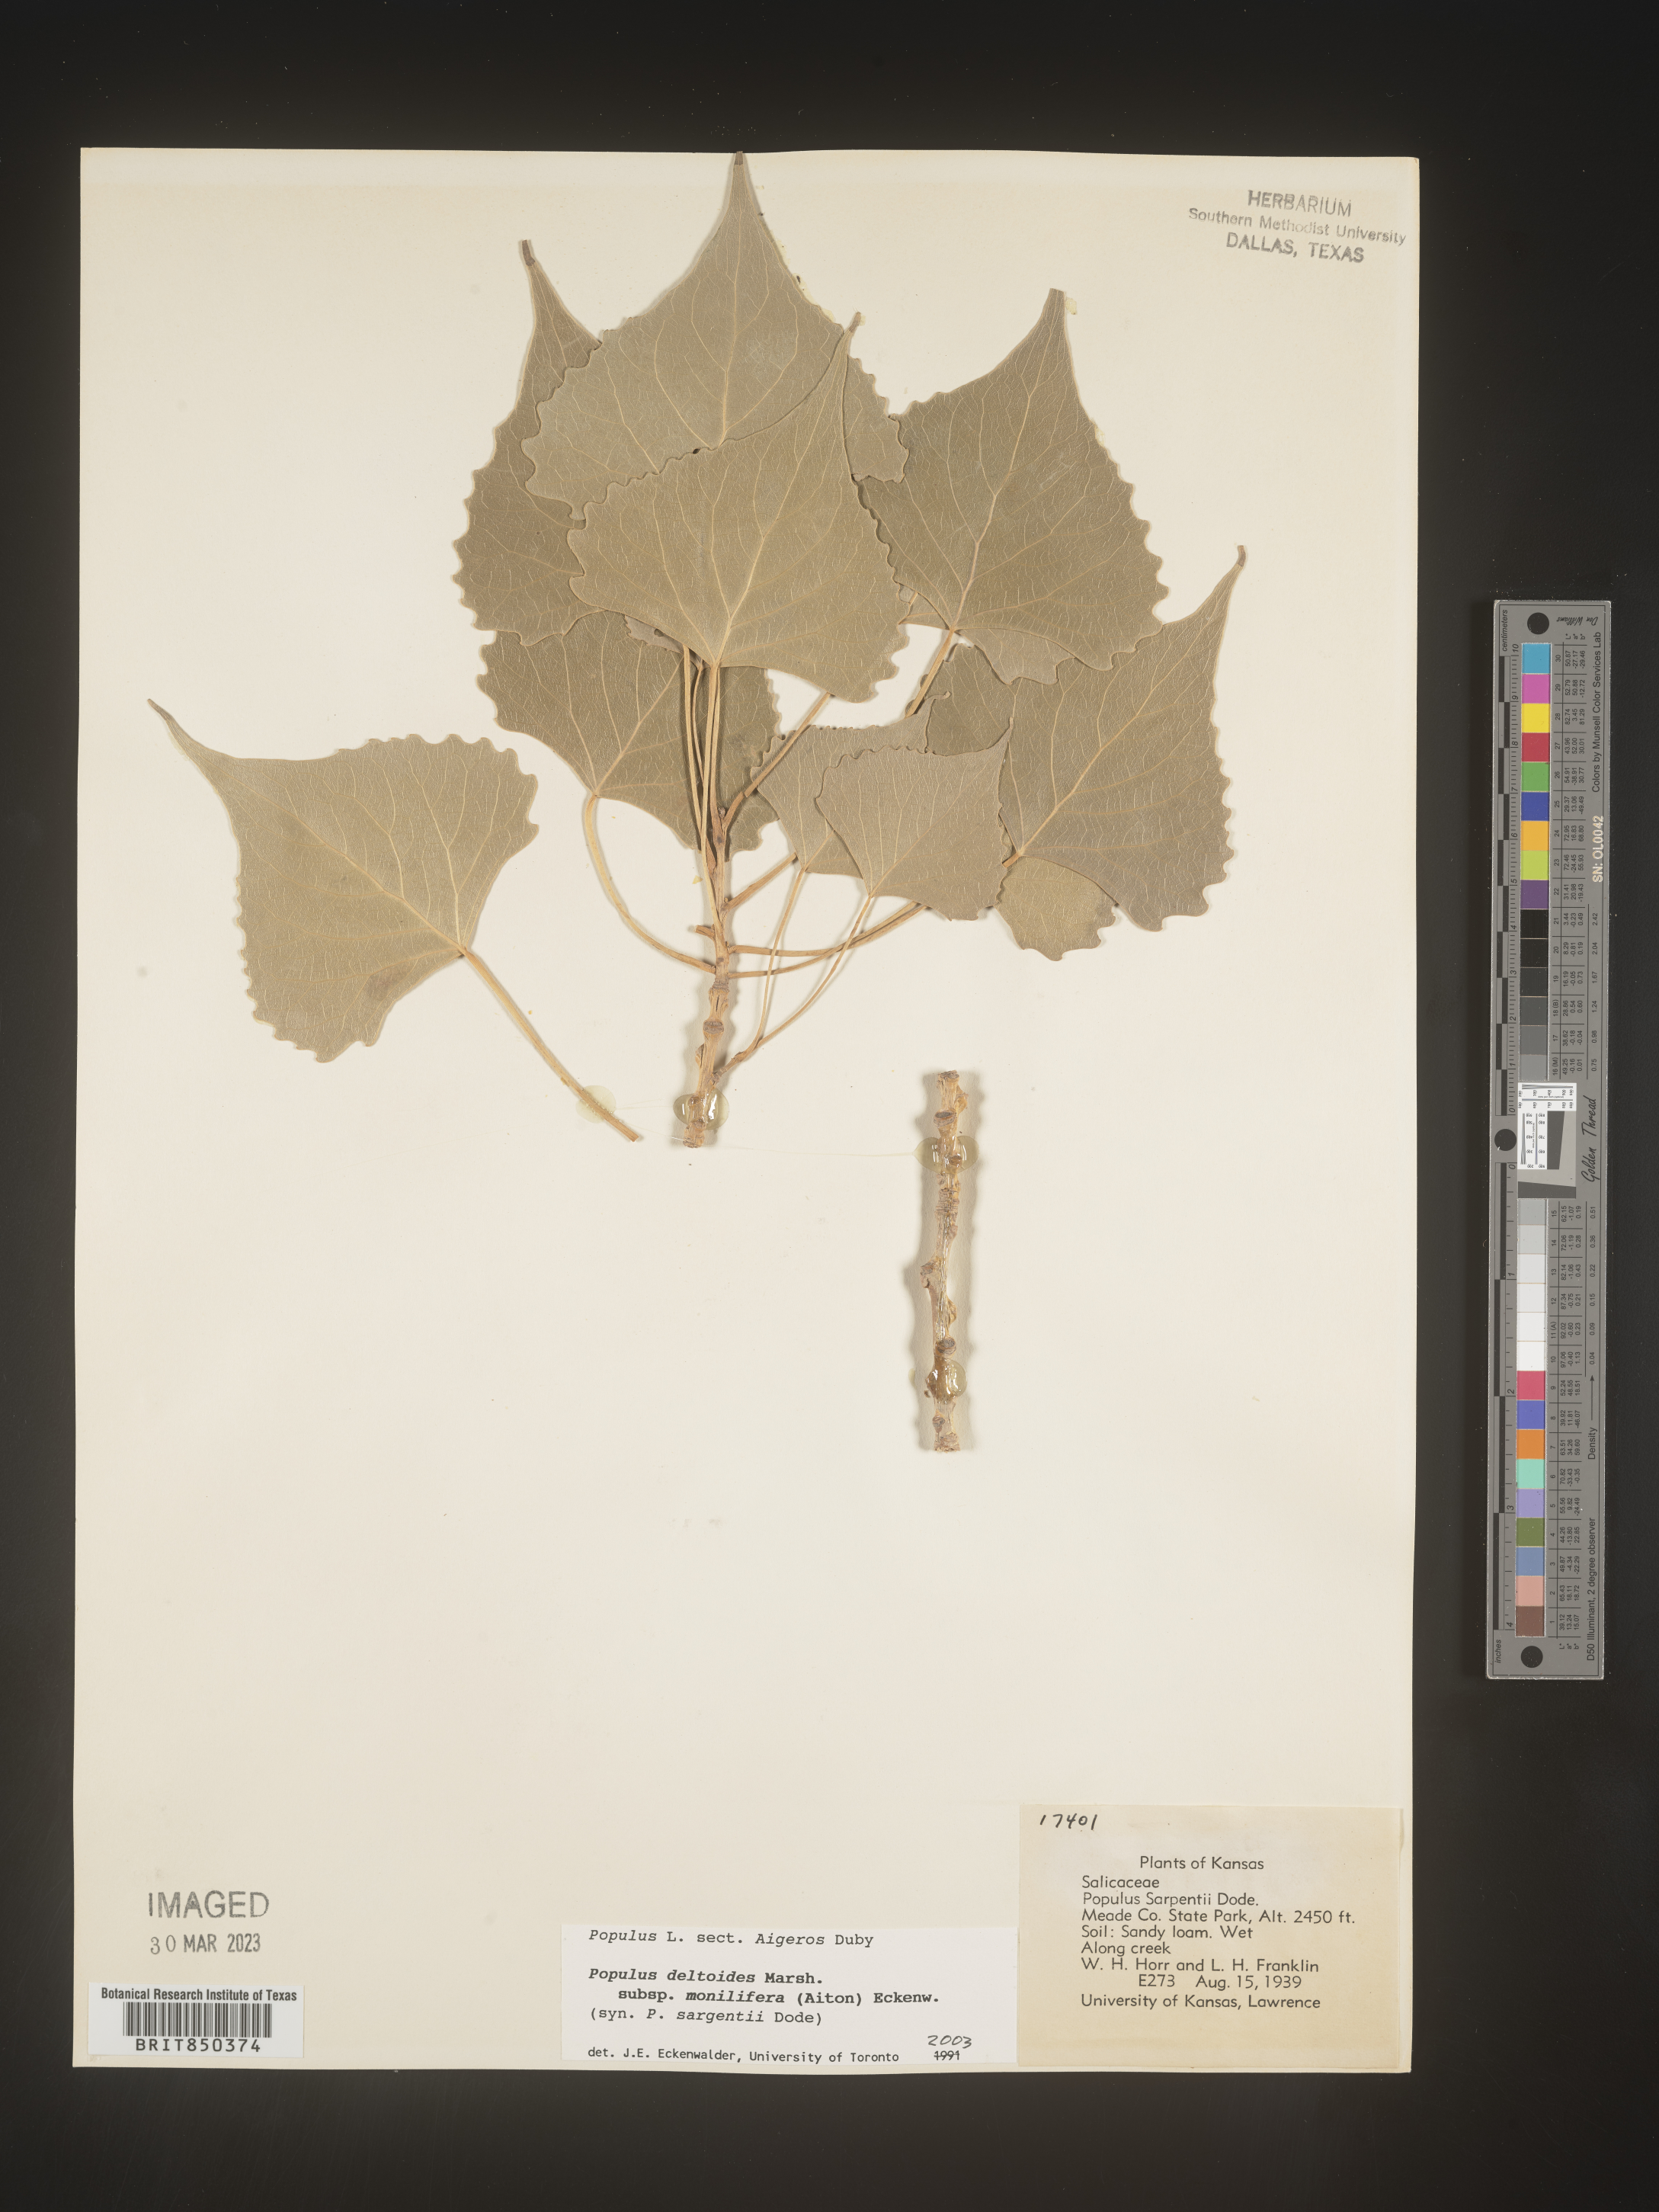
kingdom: Plantae
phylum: Tracheophyta
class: Magnoliopsida
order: Malpighiales
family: Salicaceae
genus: Populus
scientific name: Populus deltoides
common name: Eastern cottonwood
